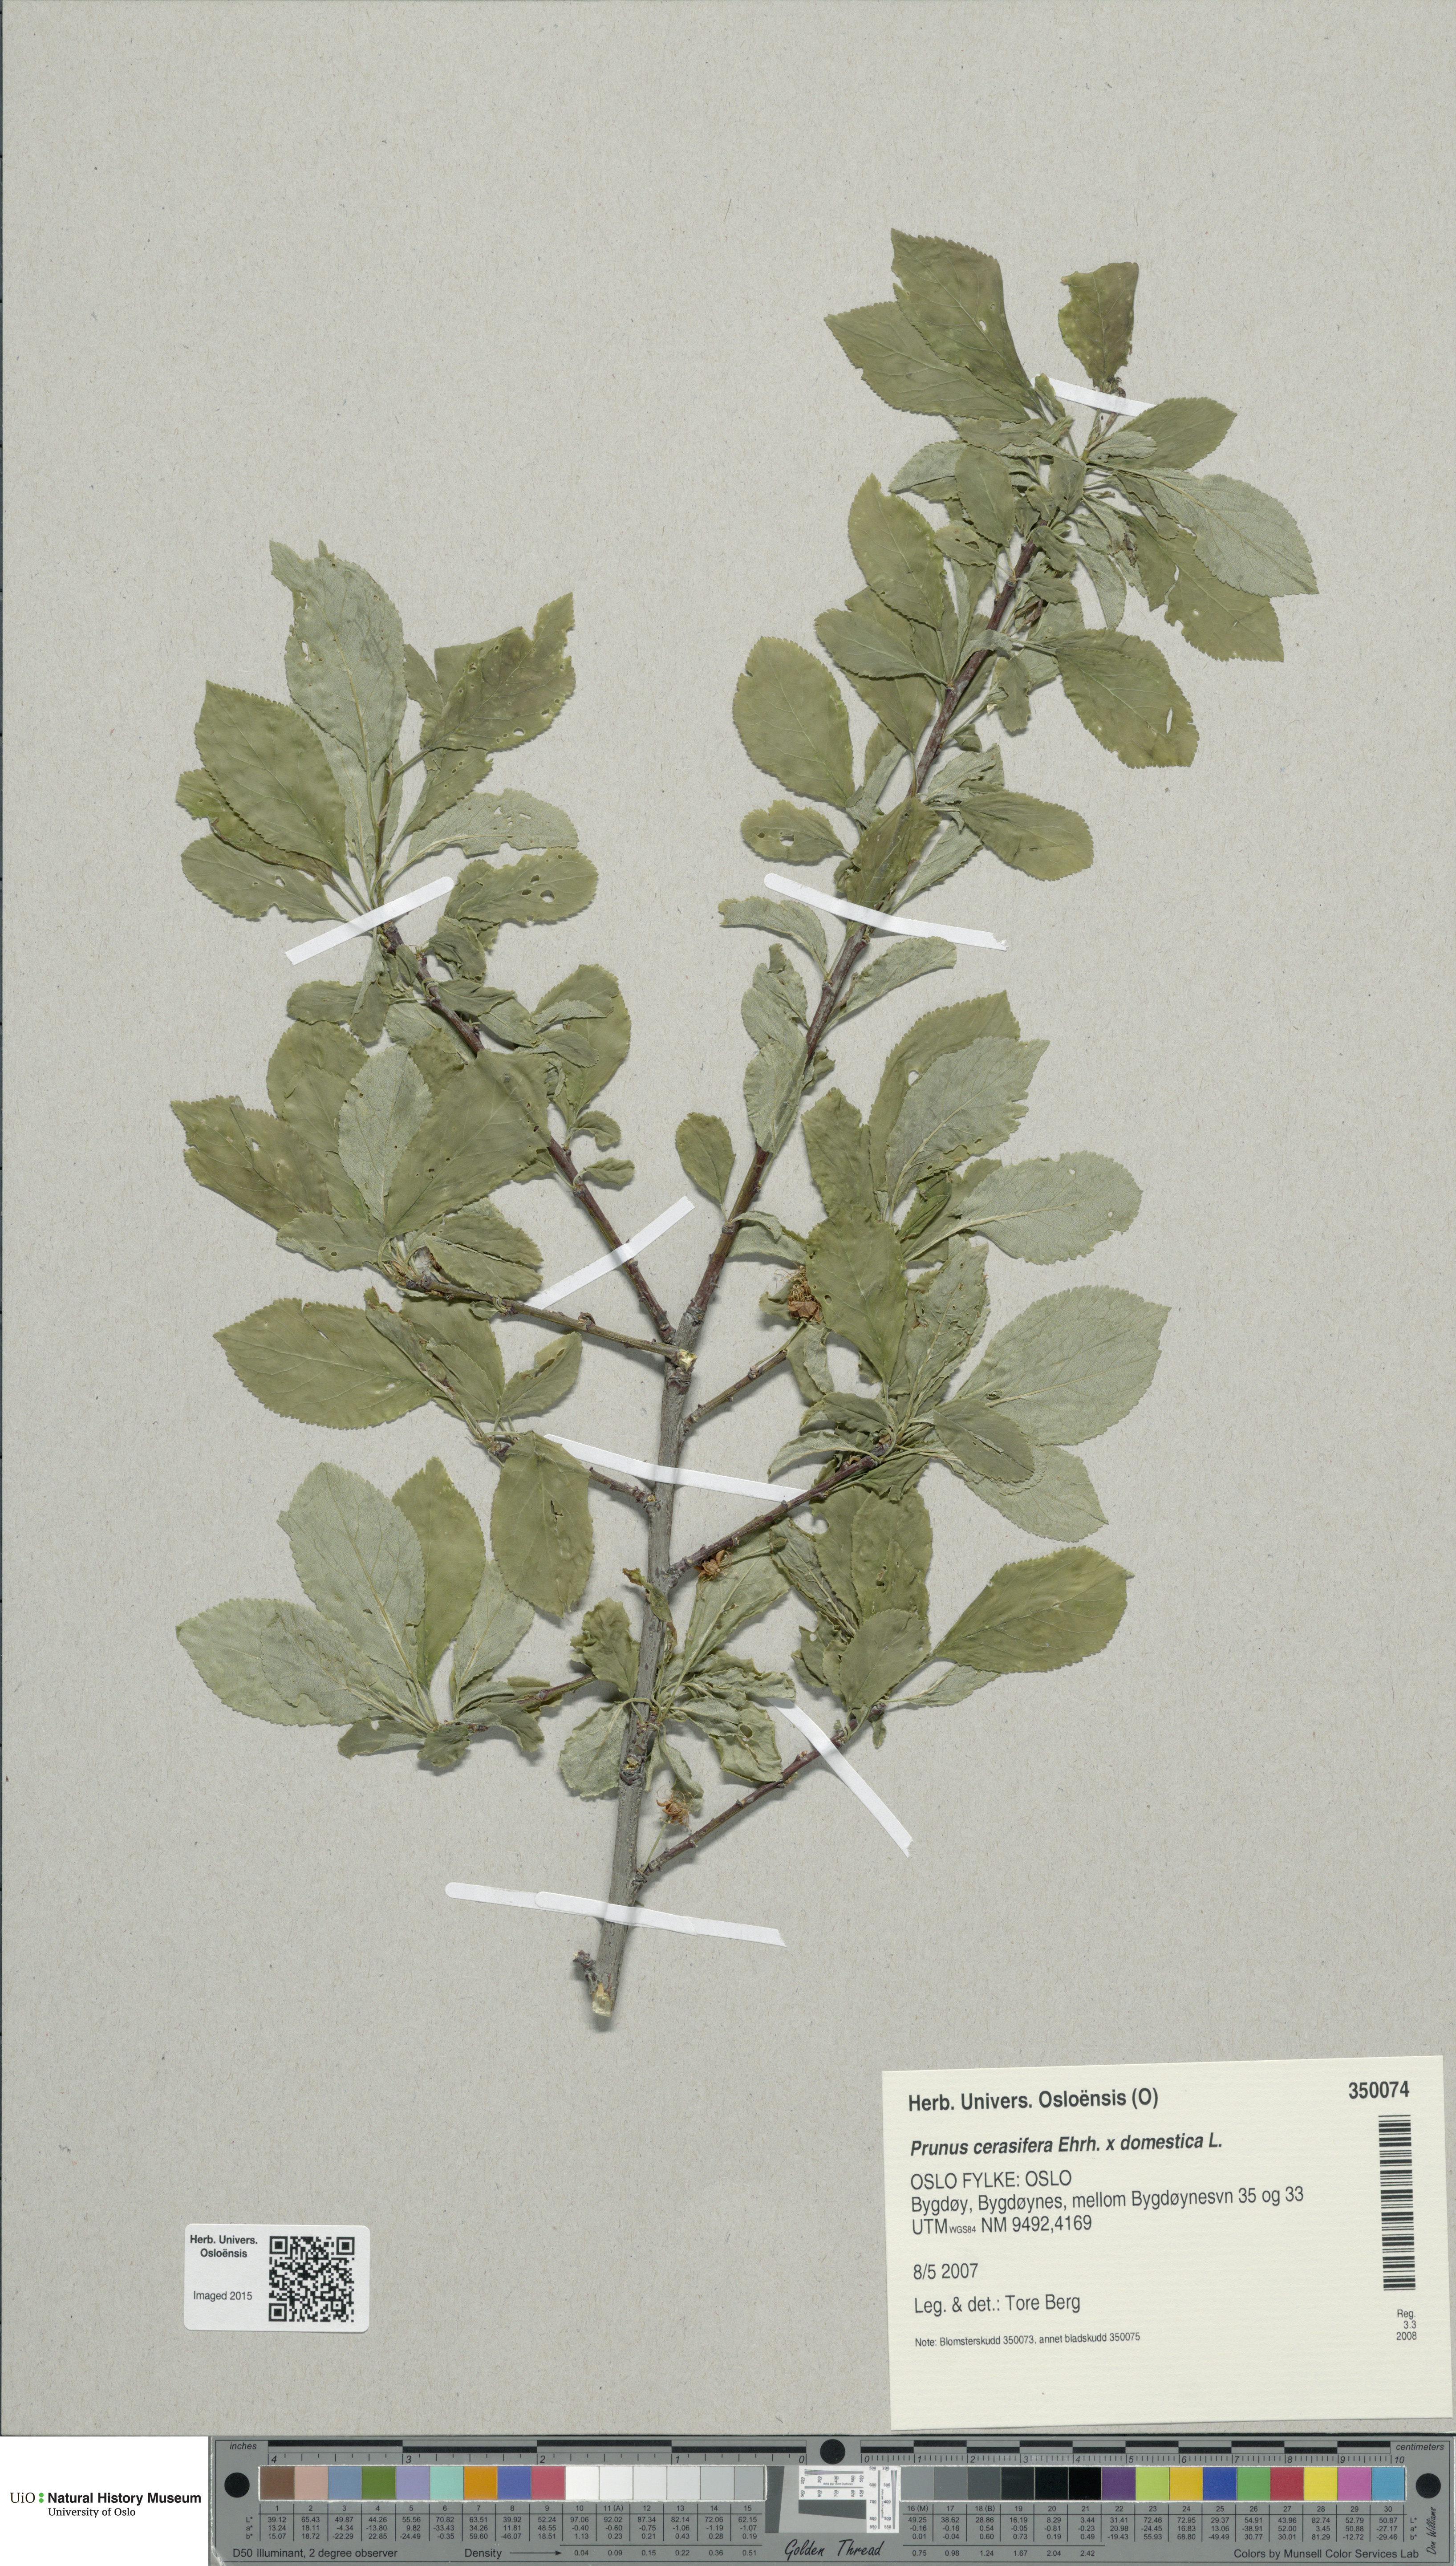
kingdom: Plantae
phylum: Tracheophyta
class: Magnoliopsida
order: Rosales
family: Rosaceae
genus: Prunus
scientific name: Prunus
